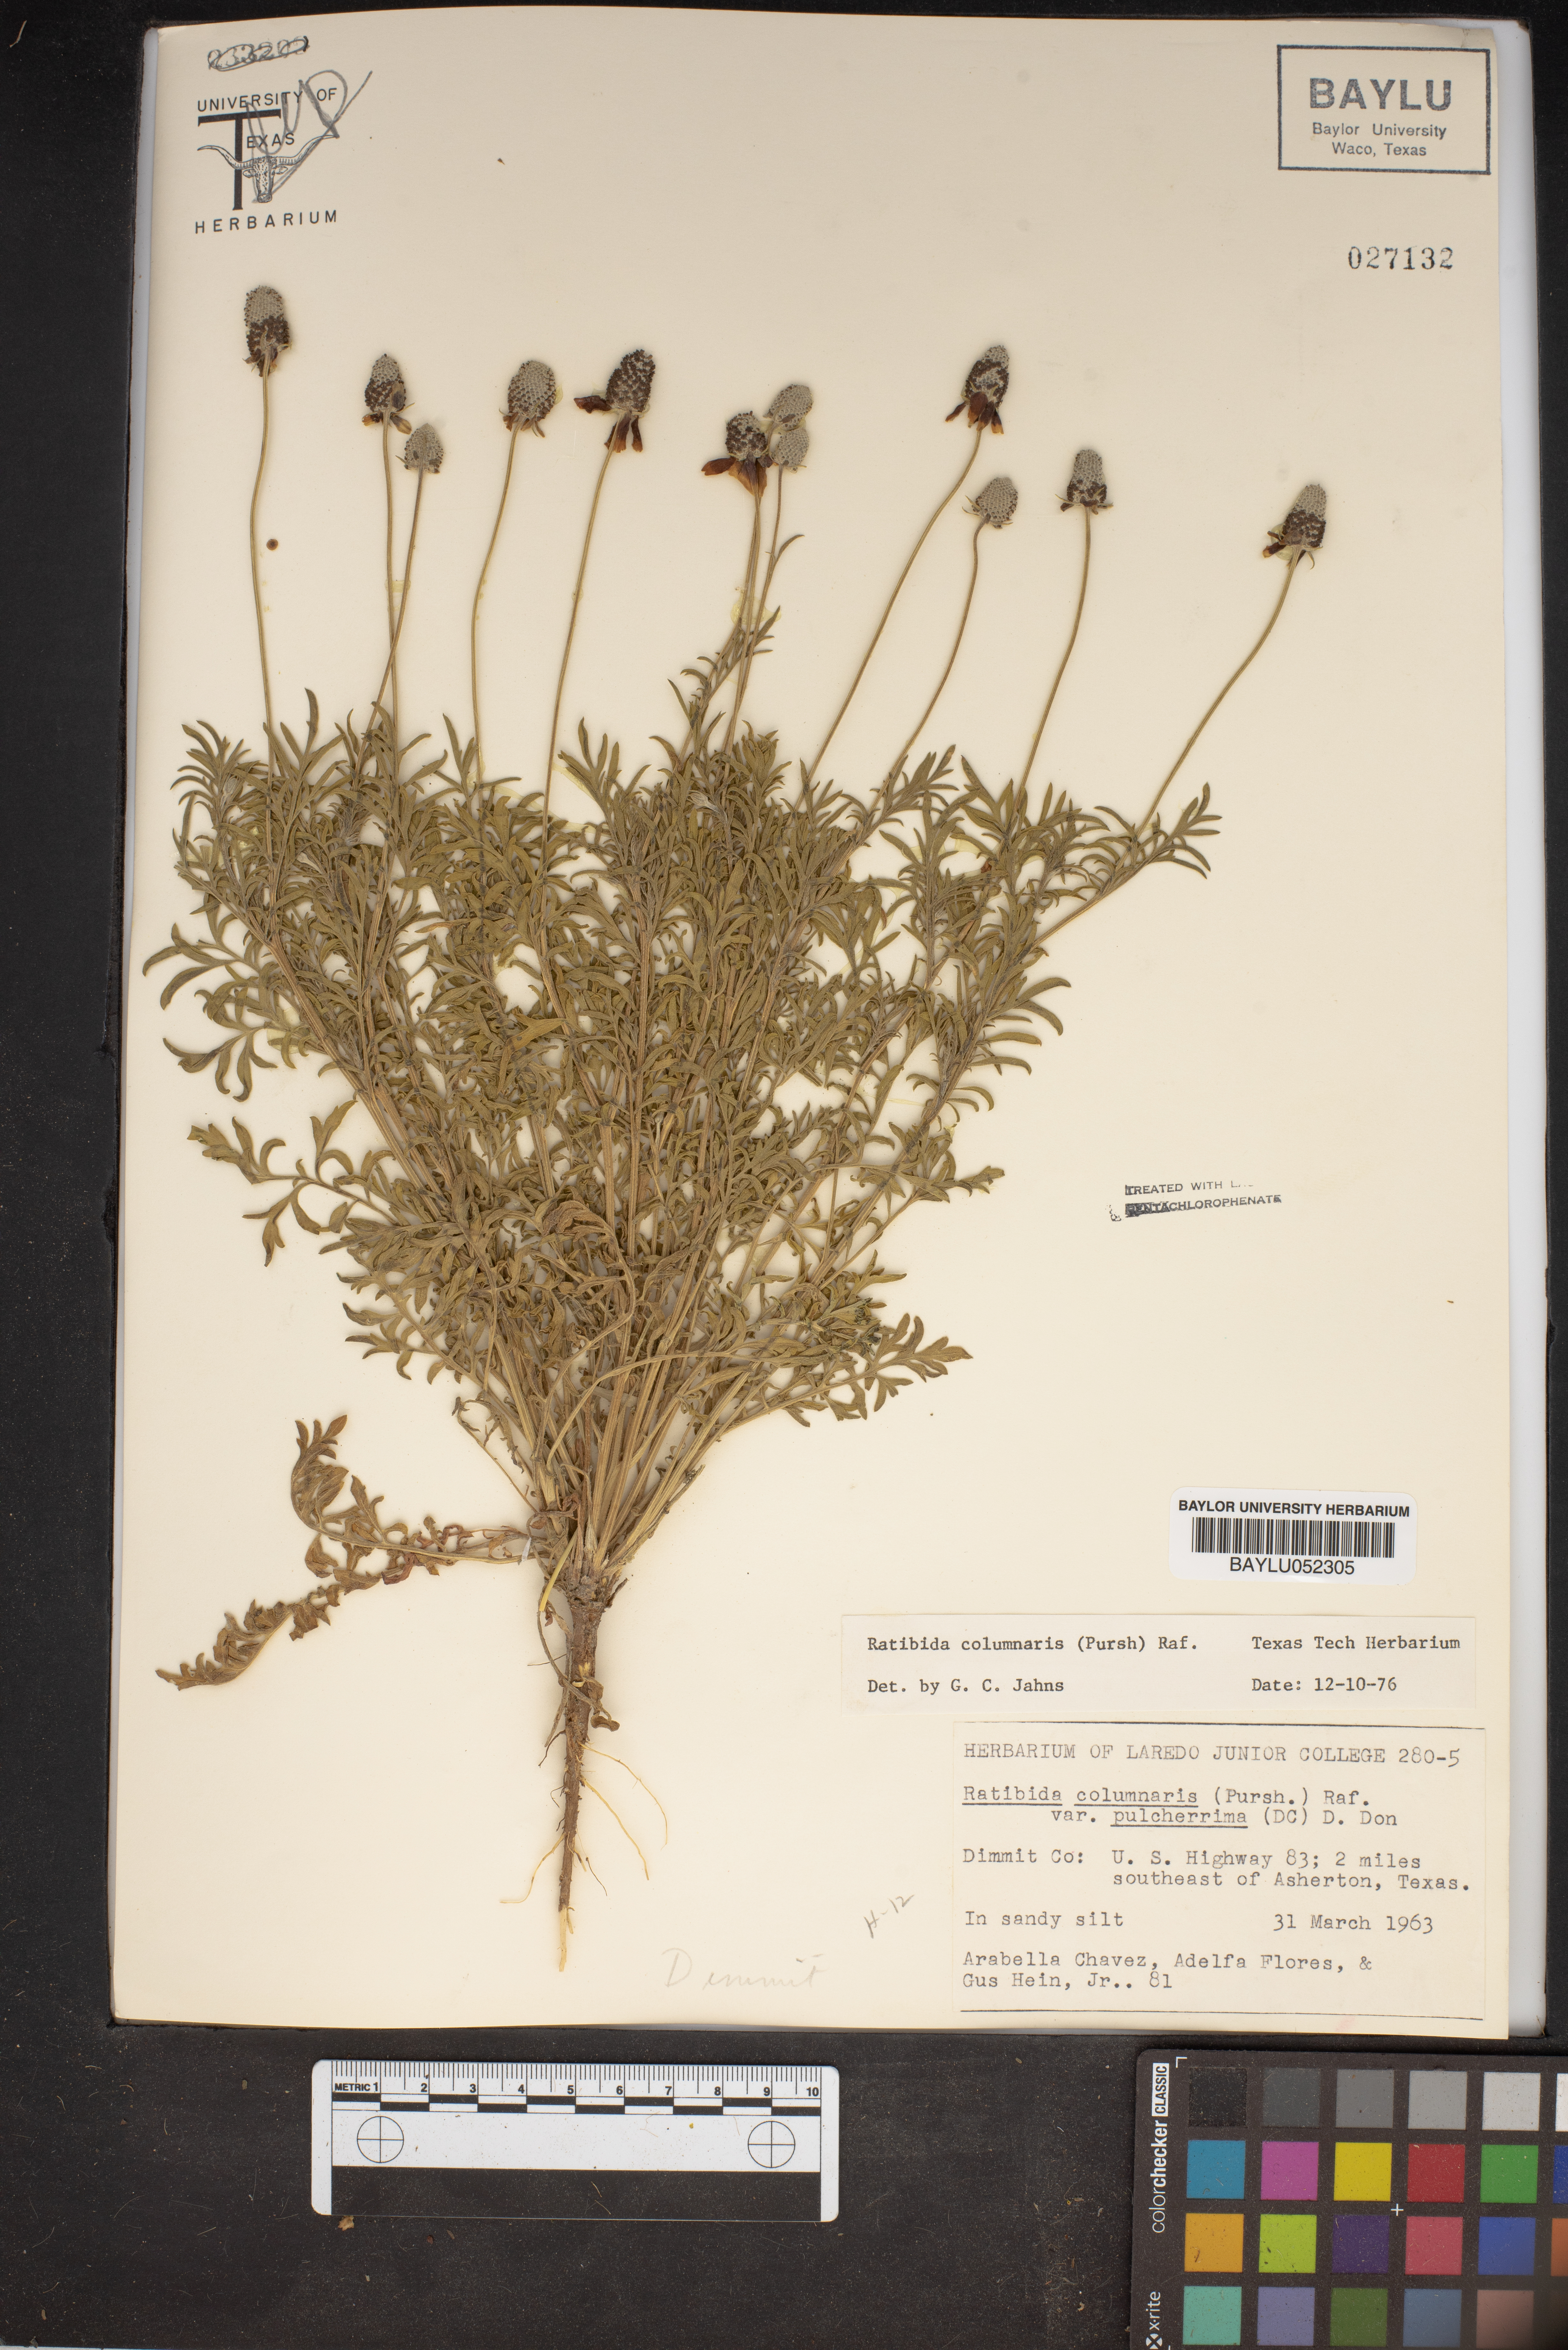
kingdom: Plantae
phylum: Tracheophyta
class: Magnoliopsida
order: Asterales
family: Asteraceae
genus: Ratibida
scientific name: Ratibida columnifera
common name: Prairie coneflower
